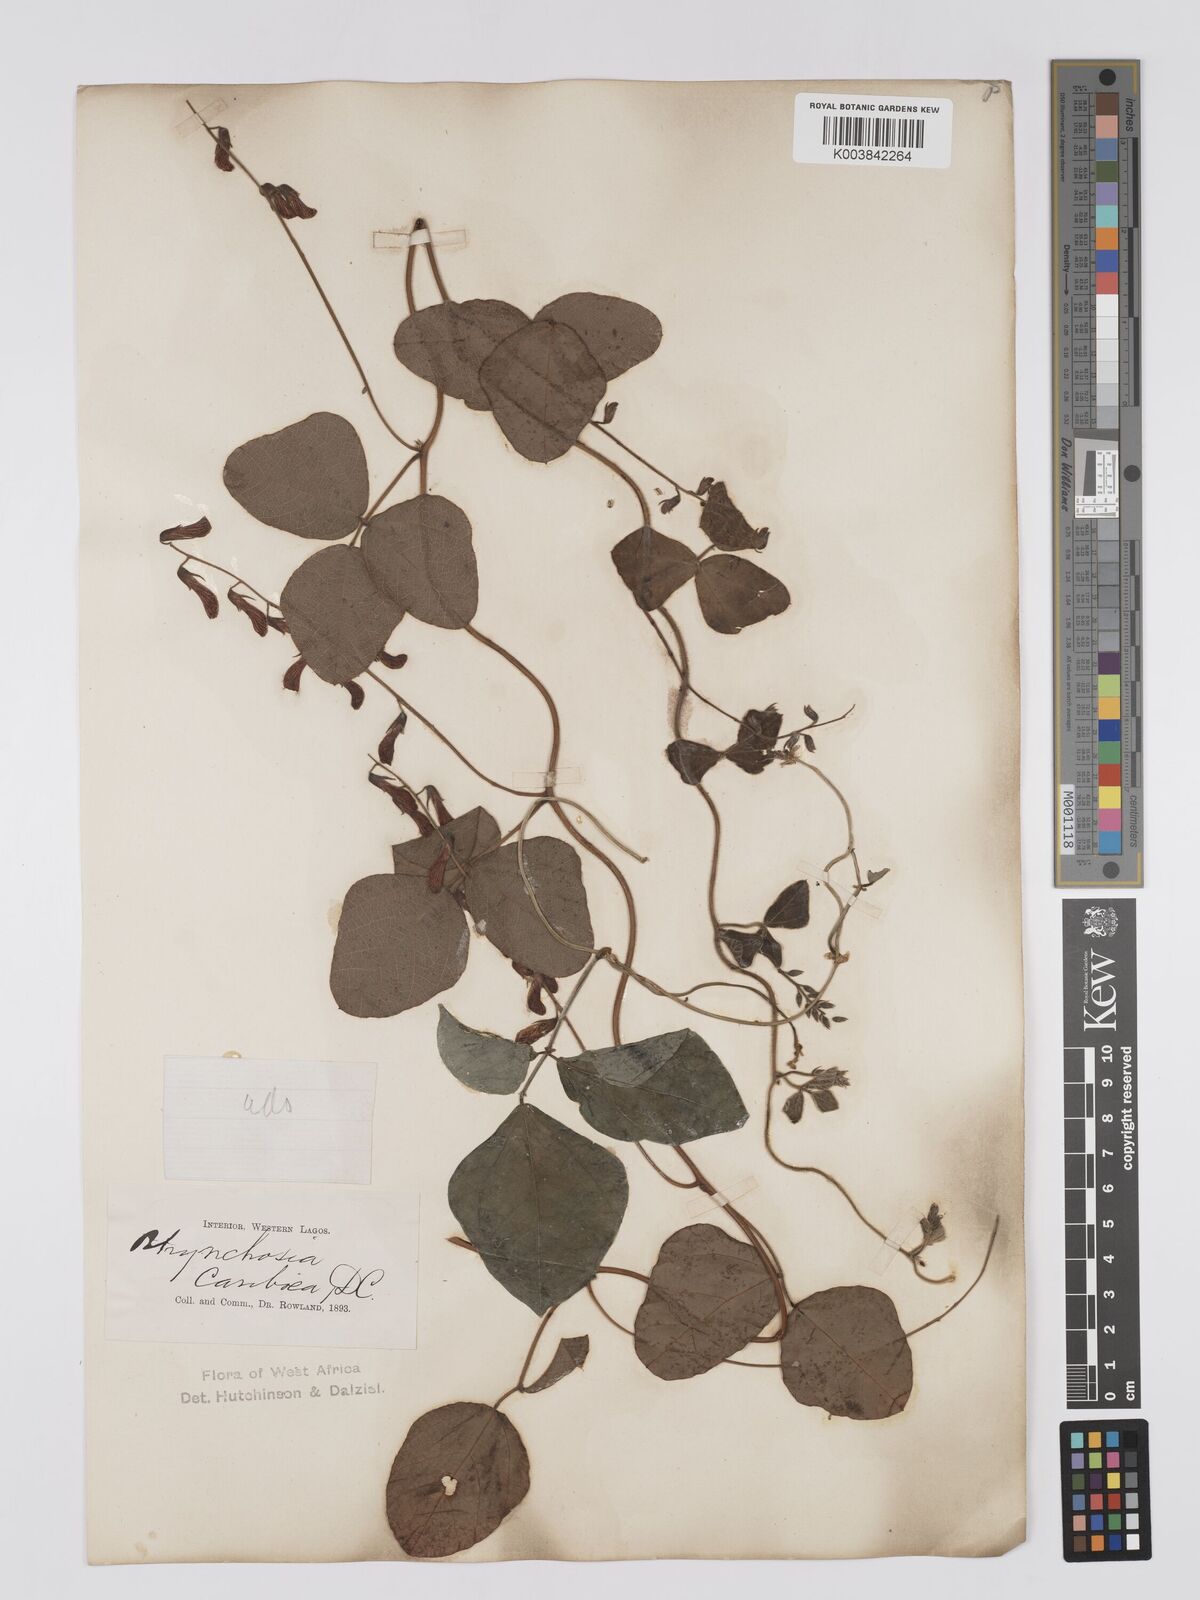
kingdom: Plantae
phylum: Tracheophyta
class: Magnoliopsida
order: Fabales
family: Fabaceae
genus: Rhynchosia
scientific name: Rhynchosia sublobata
